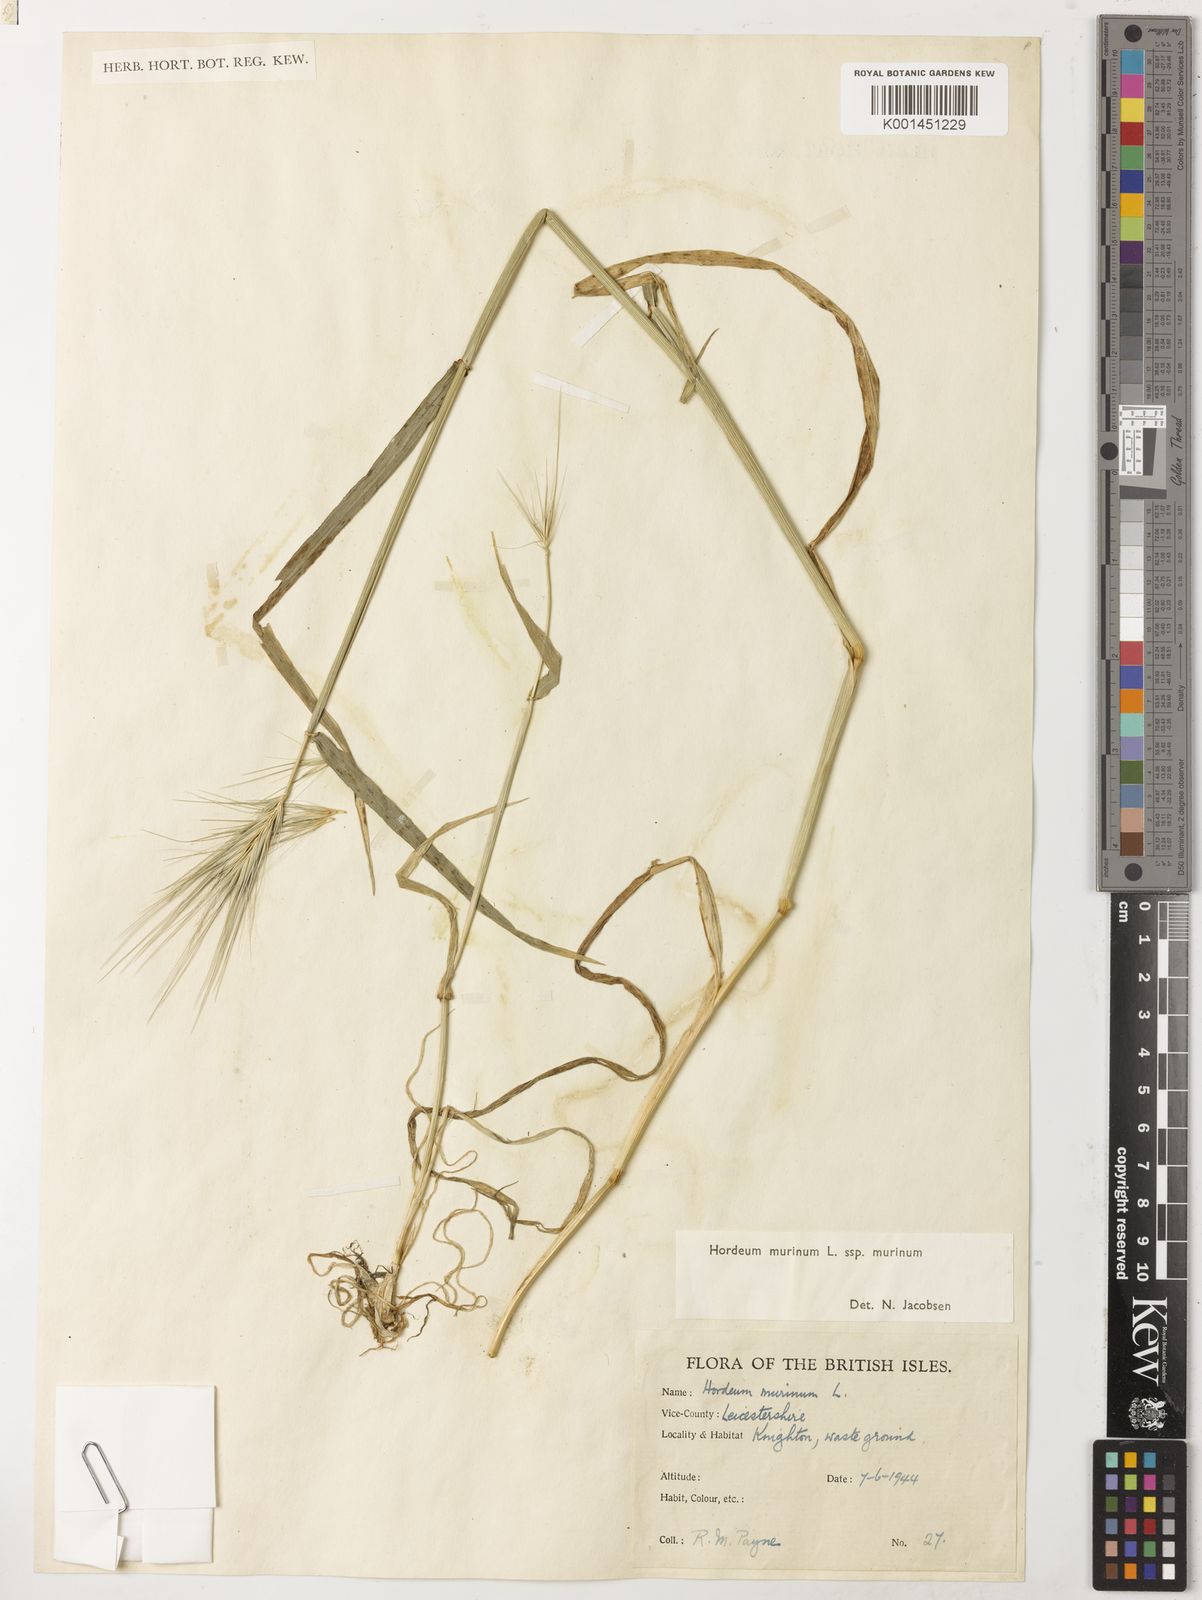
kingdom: Plantae
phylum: Tracheophyta
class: Liliopsida
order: Poales
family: Poaceae
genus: Hordeum
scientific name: Hordeum murinum
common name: Wall barley
